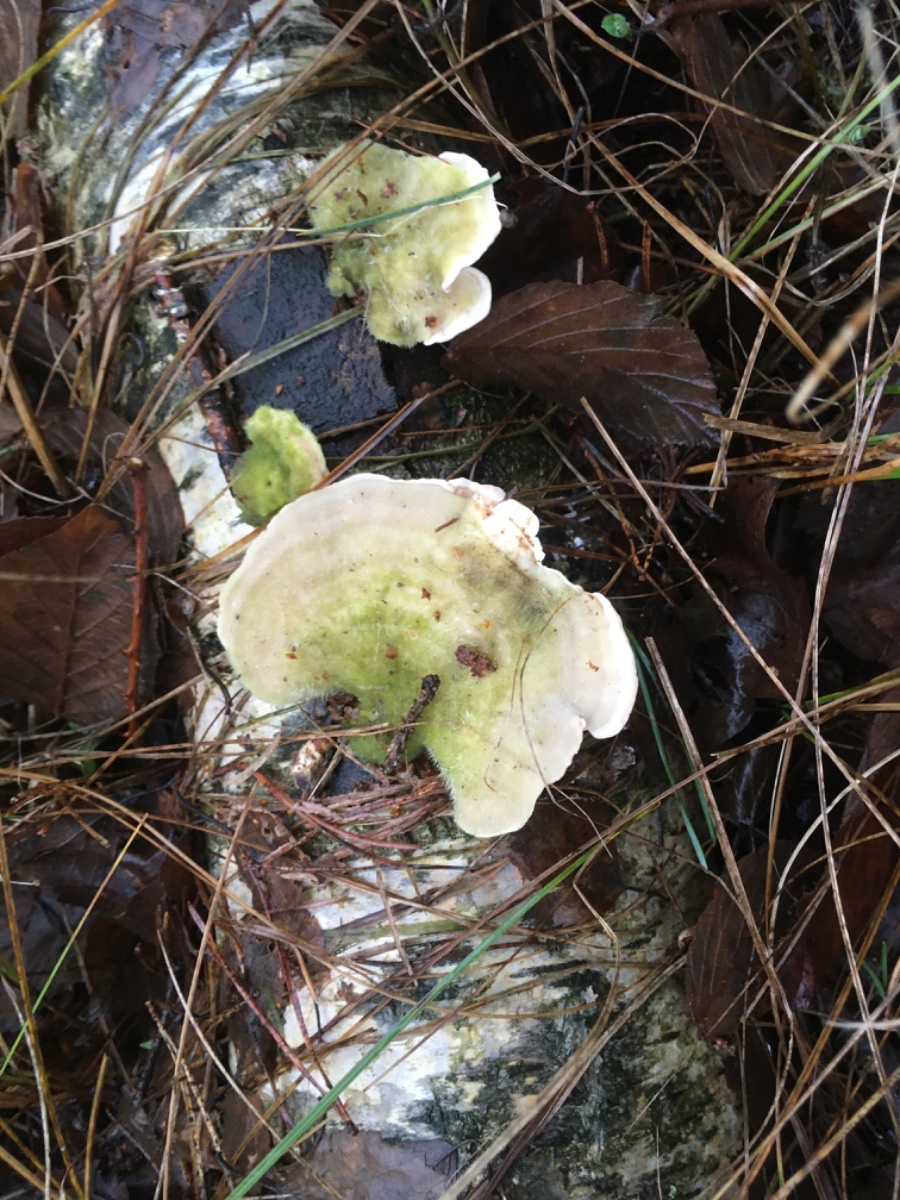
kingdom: Fungi
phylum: Basidiomycota
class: Agaricomycetes
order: Polyporales
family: Polyporaceae
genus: Trametes
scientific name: Trametes hirsuta
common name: håret læderporesvamp
